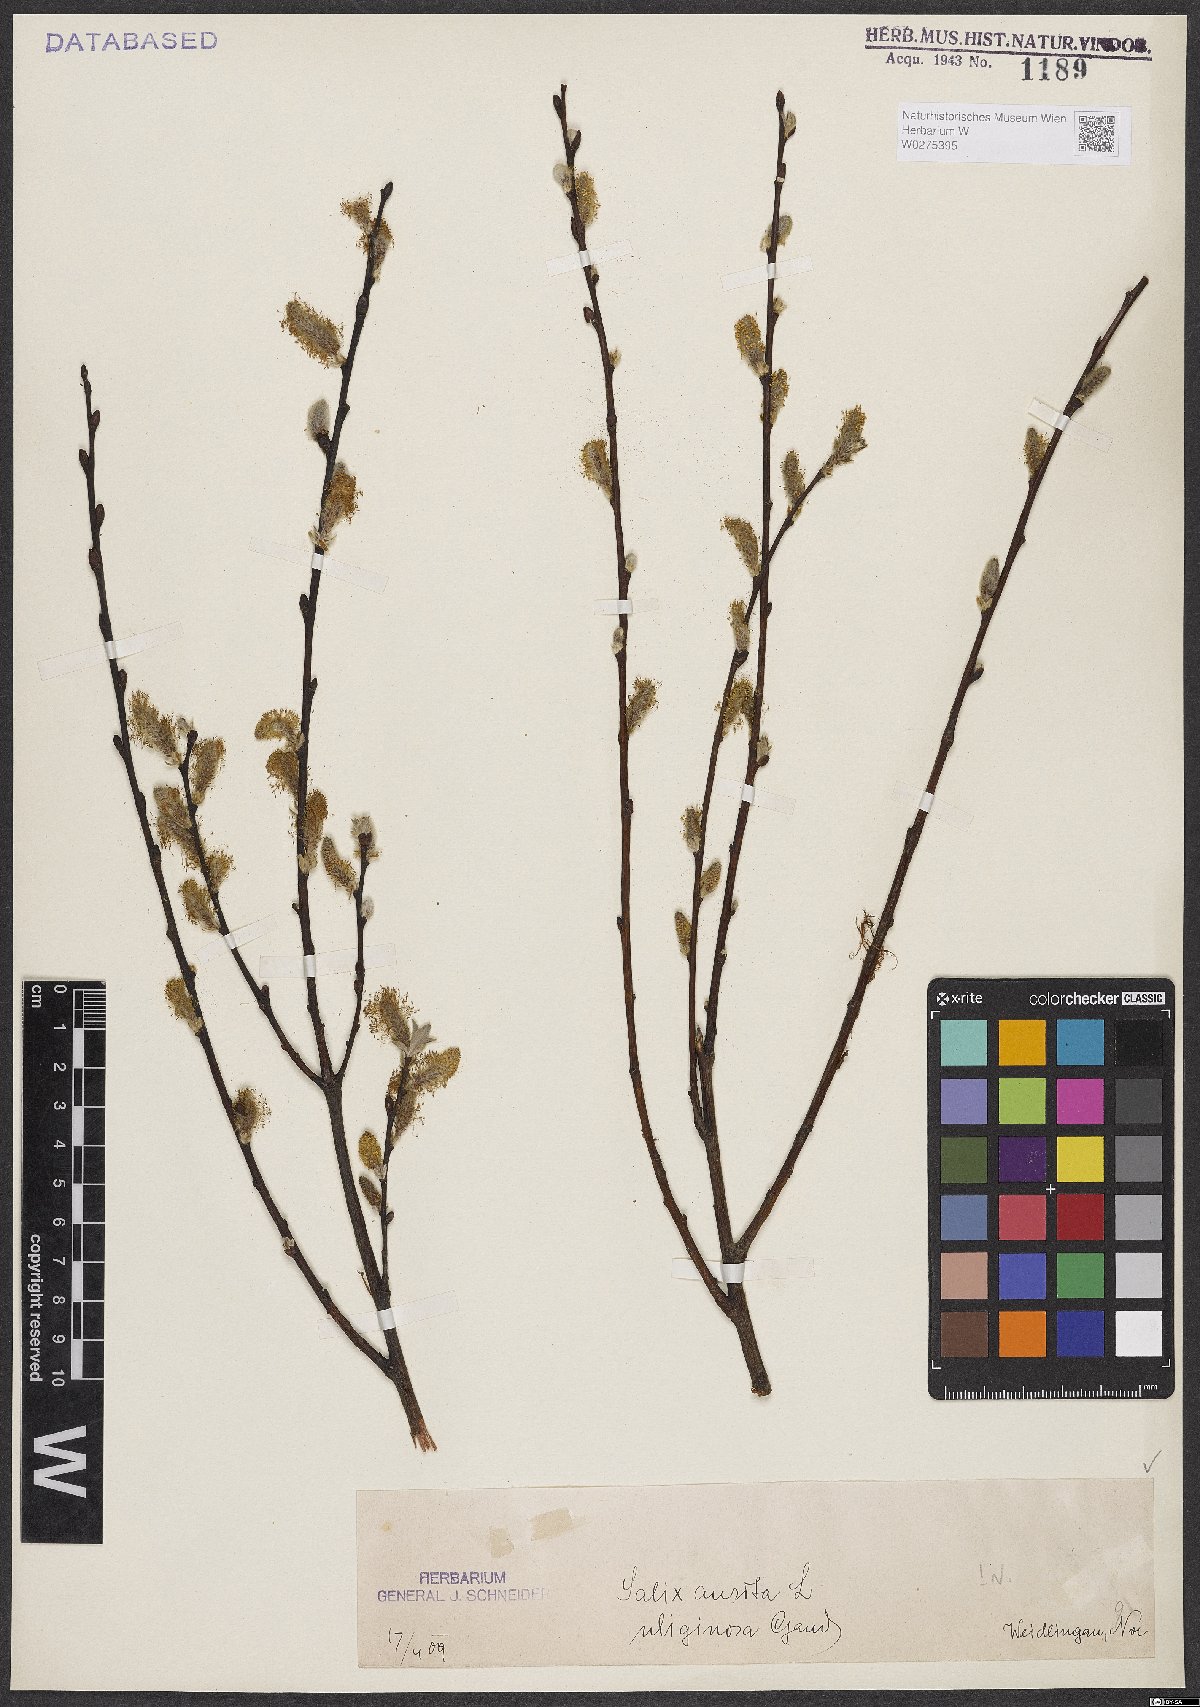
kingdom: Plantae
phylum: Tracheophyta
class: Magnoliopsida
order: Malpighiales
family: Salicaceae
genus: Salix
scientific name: Salix aurita
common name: Eared willow
